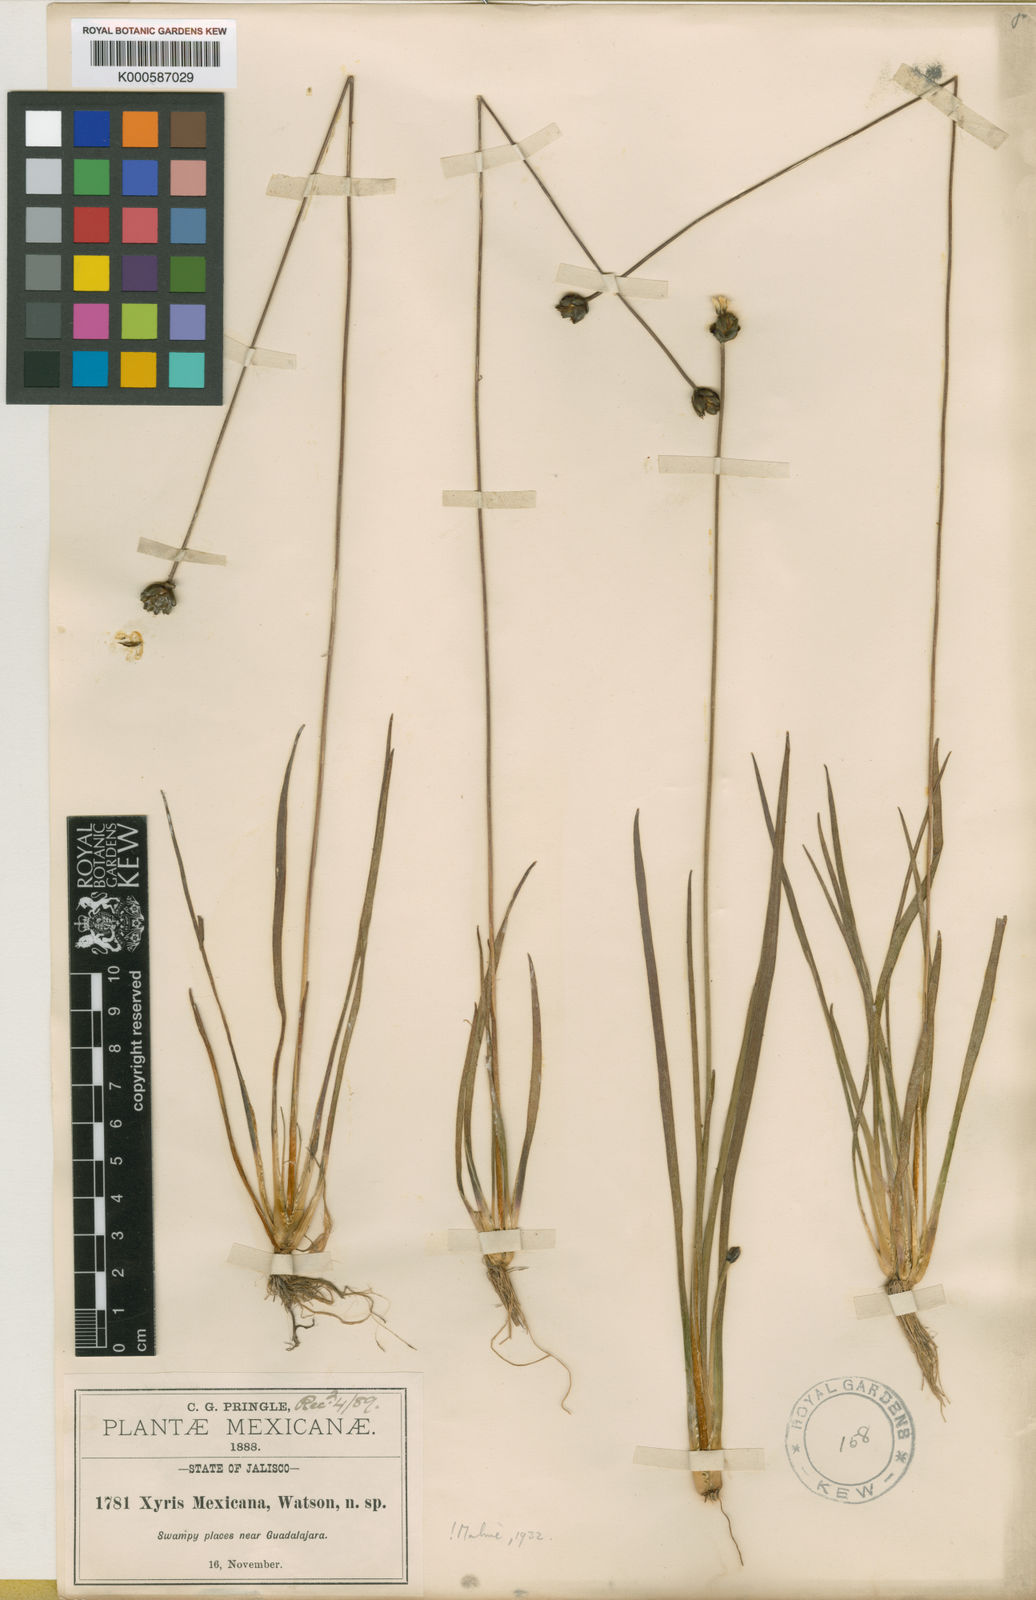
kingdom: Plantae
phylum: Tracheophyta
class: Liliopsida
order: Poales
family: Xyridaceae
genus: Xyris
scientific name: Xyris mexicana
